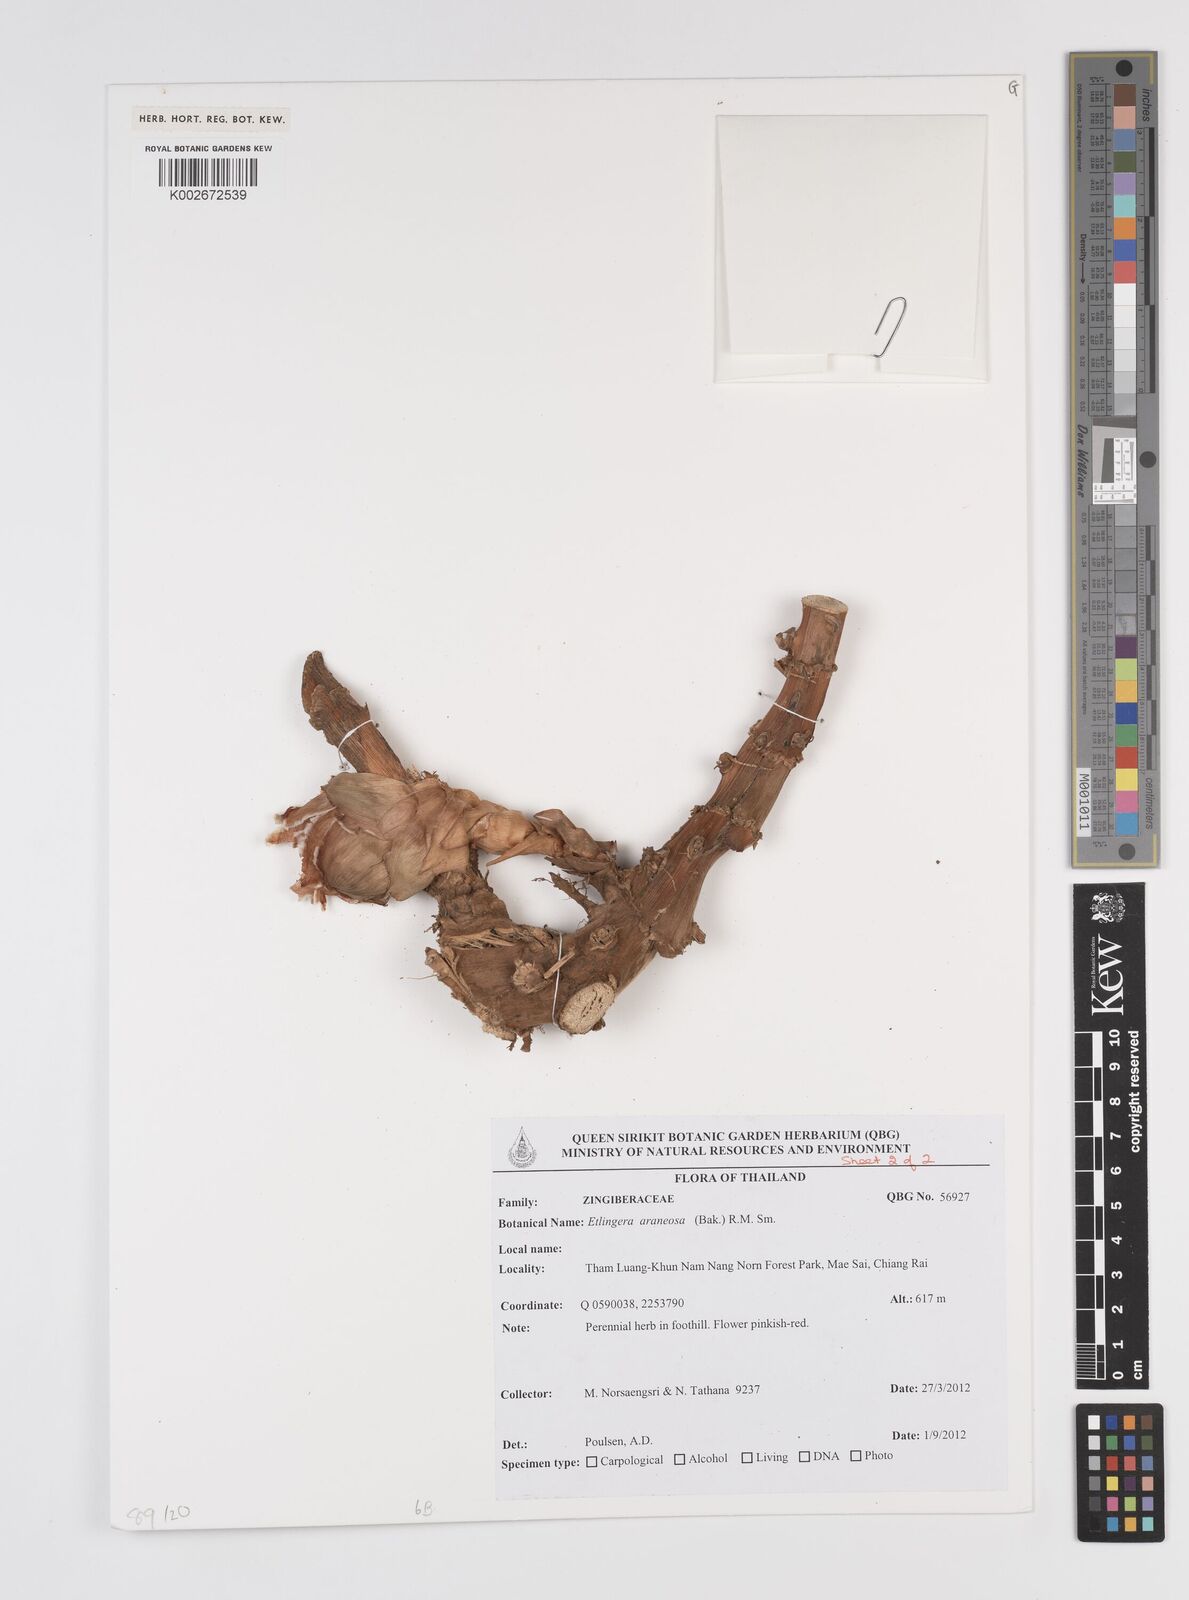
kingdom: Plantae
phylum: Tracheophyta
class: Liliopsida
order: Zingiberales
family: Zingiberaceae
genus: Etlingera
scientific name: Etlingera araneosa
